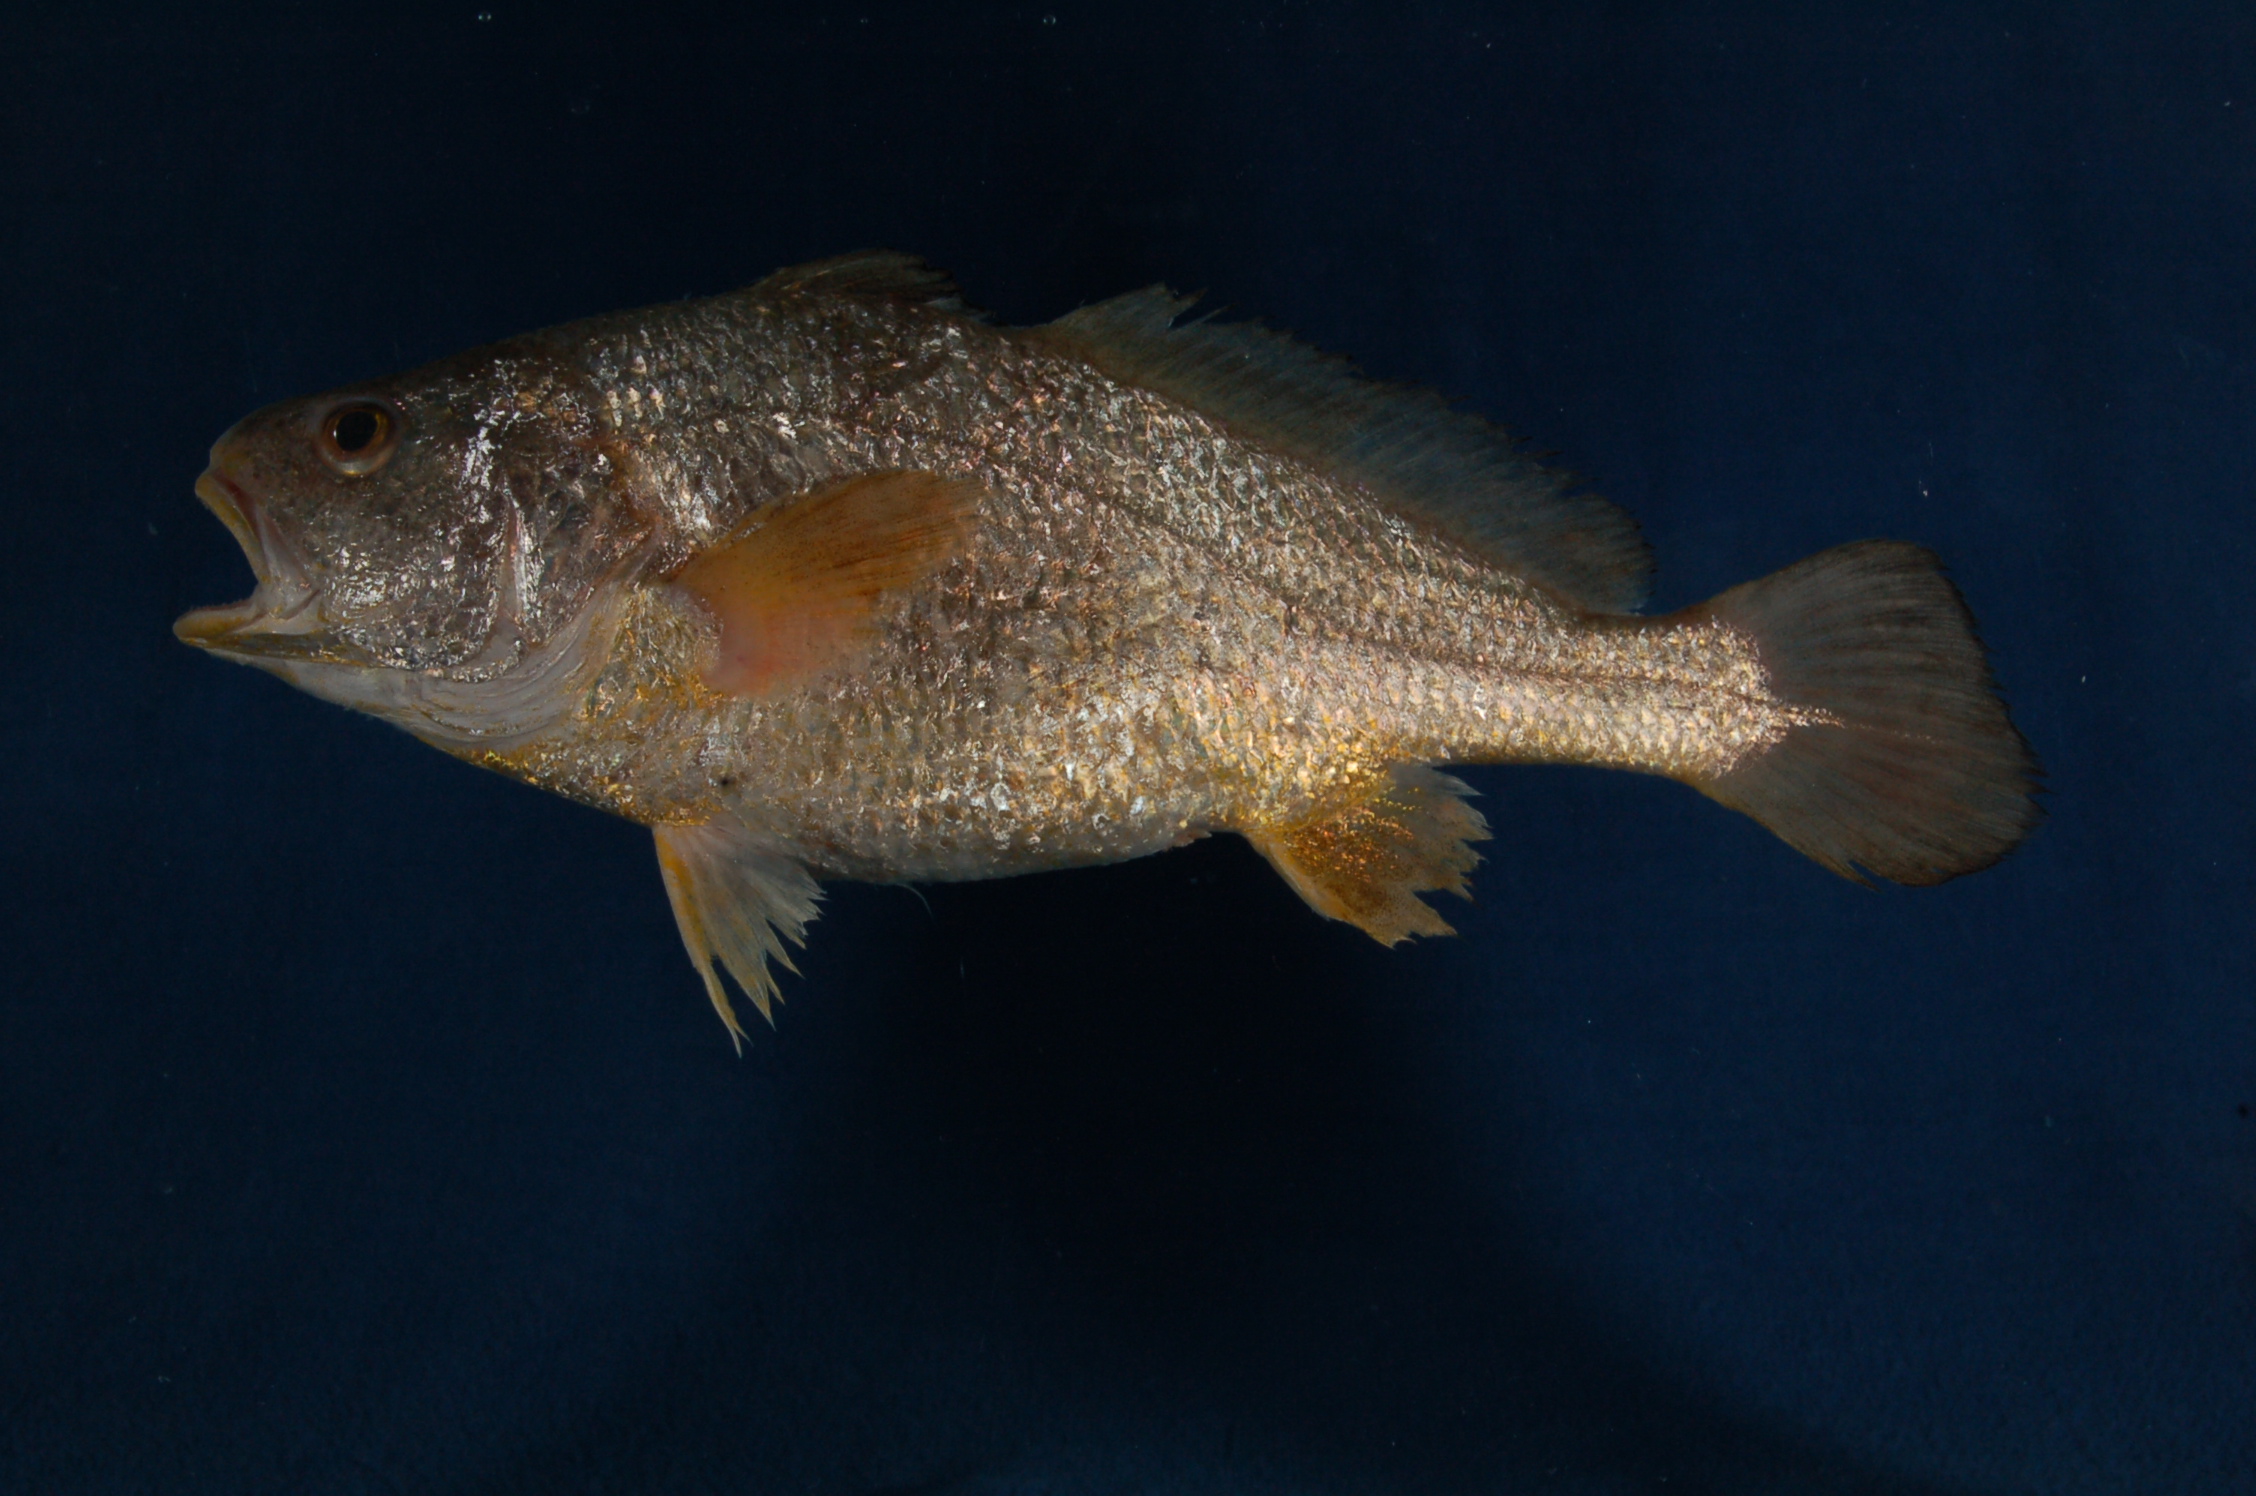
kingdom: Animalia
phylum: Chordata
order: Perciformes
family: Sciaenidae
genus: Johnius
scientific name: Johnius dorsalis
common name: Sharp-tooth jewfish
